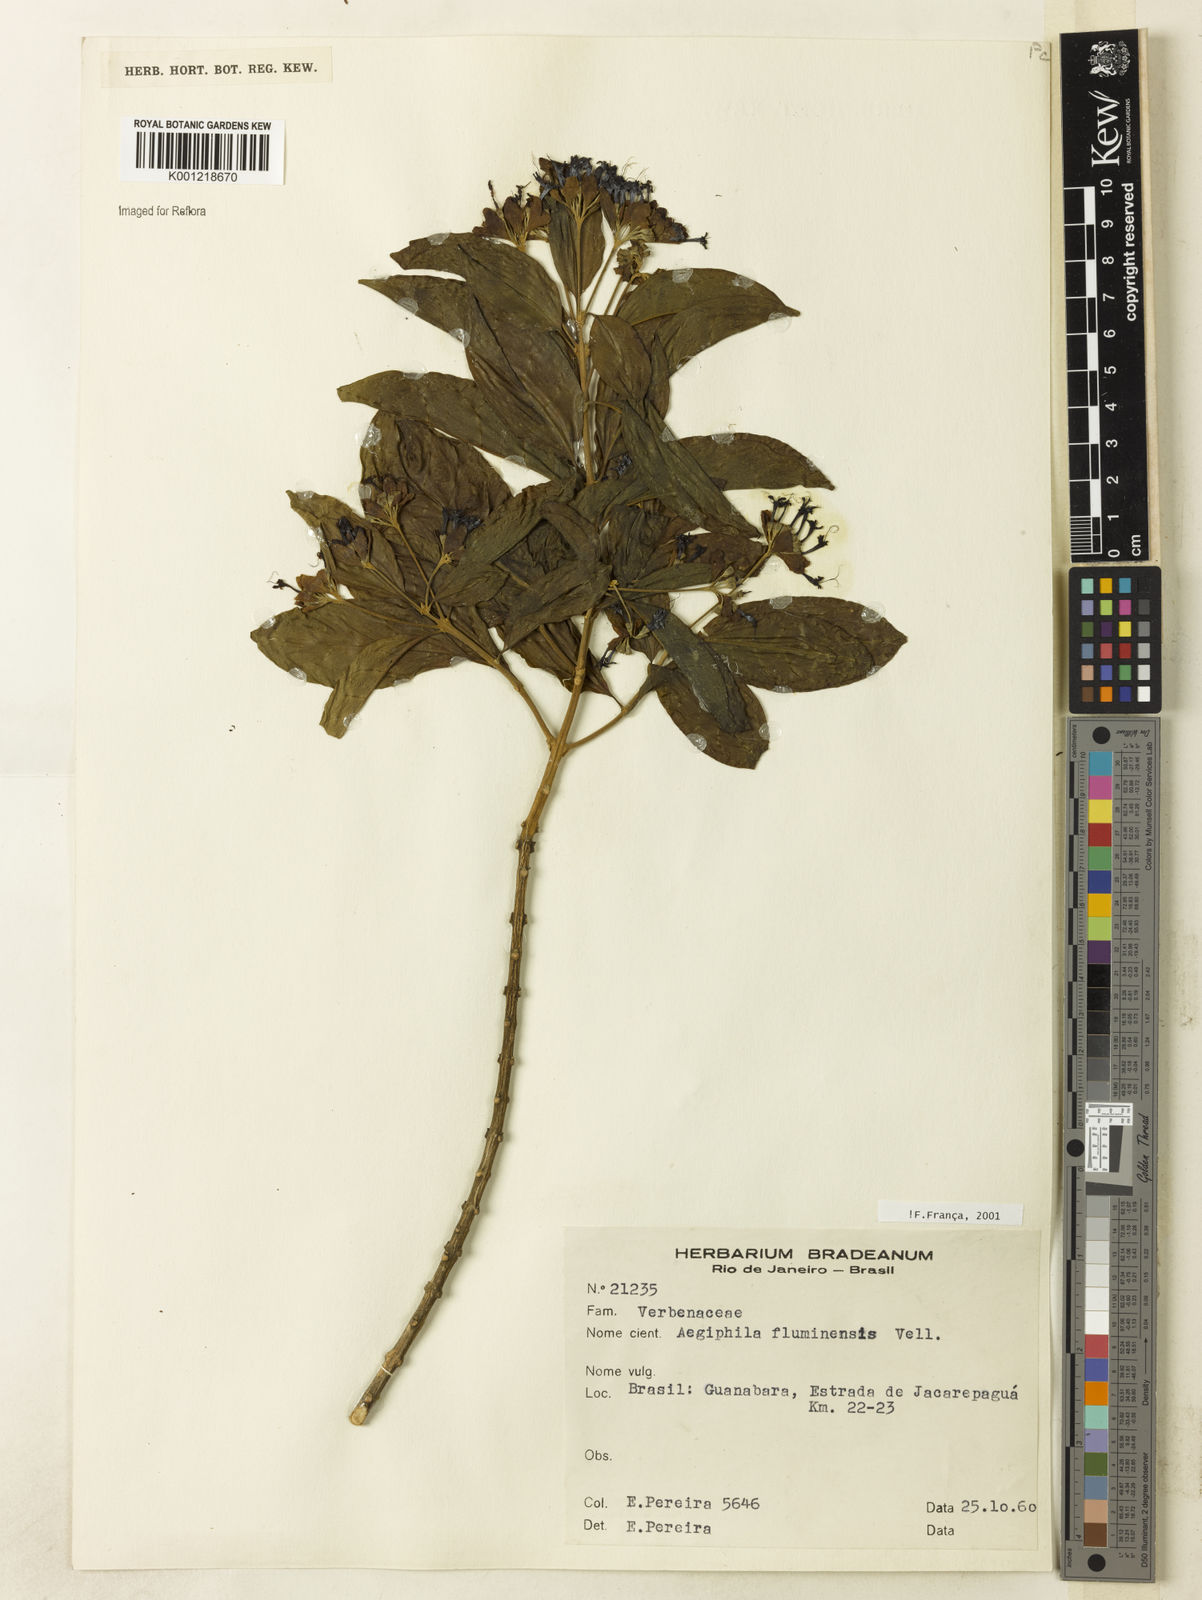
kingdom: Plantae
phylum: Tracheophyta
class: Magnoliopsida
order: Lamiales
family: Lamiaceae
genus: Aegiphila
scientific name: Aegiphila fluminensis
